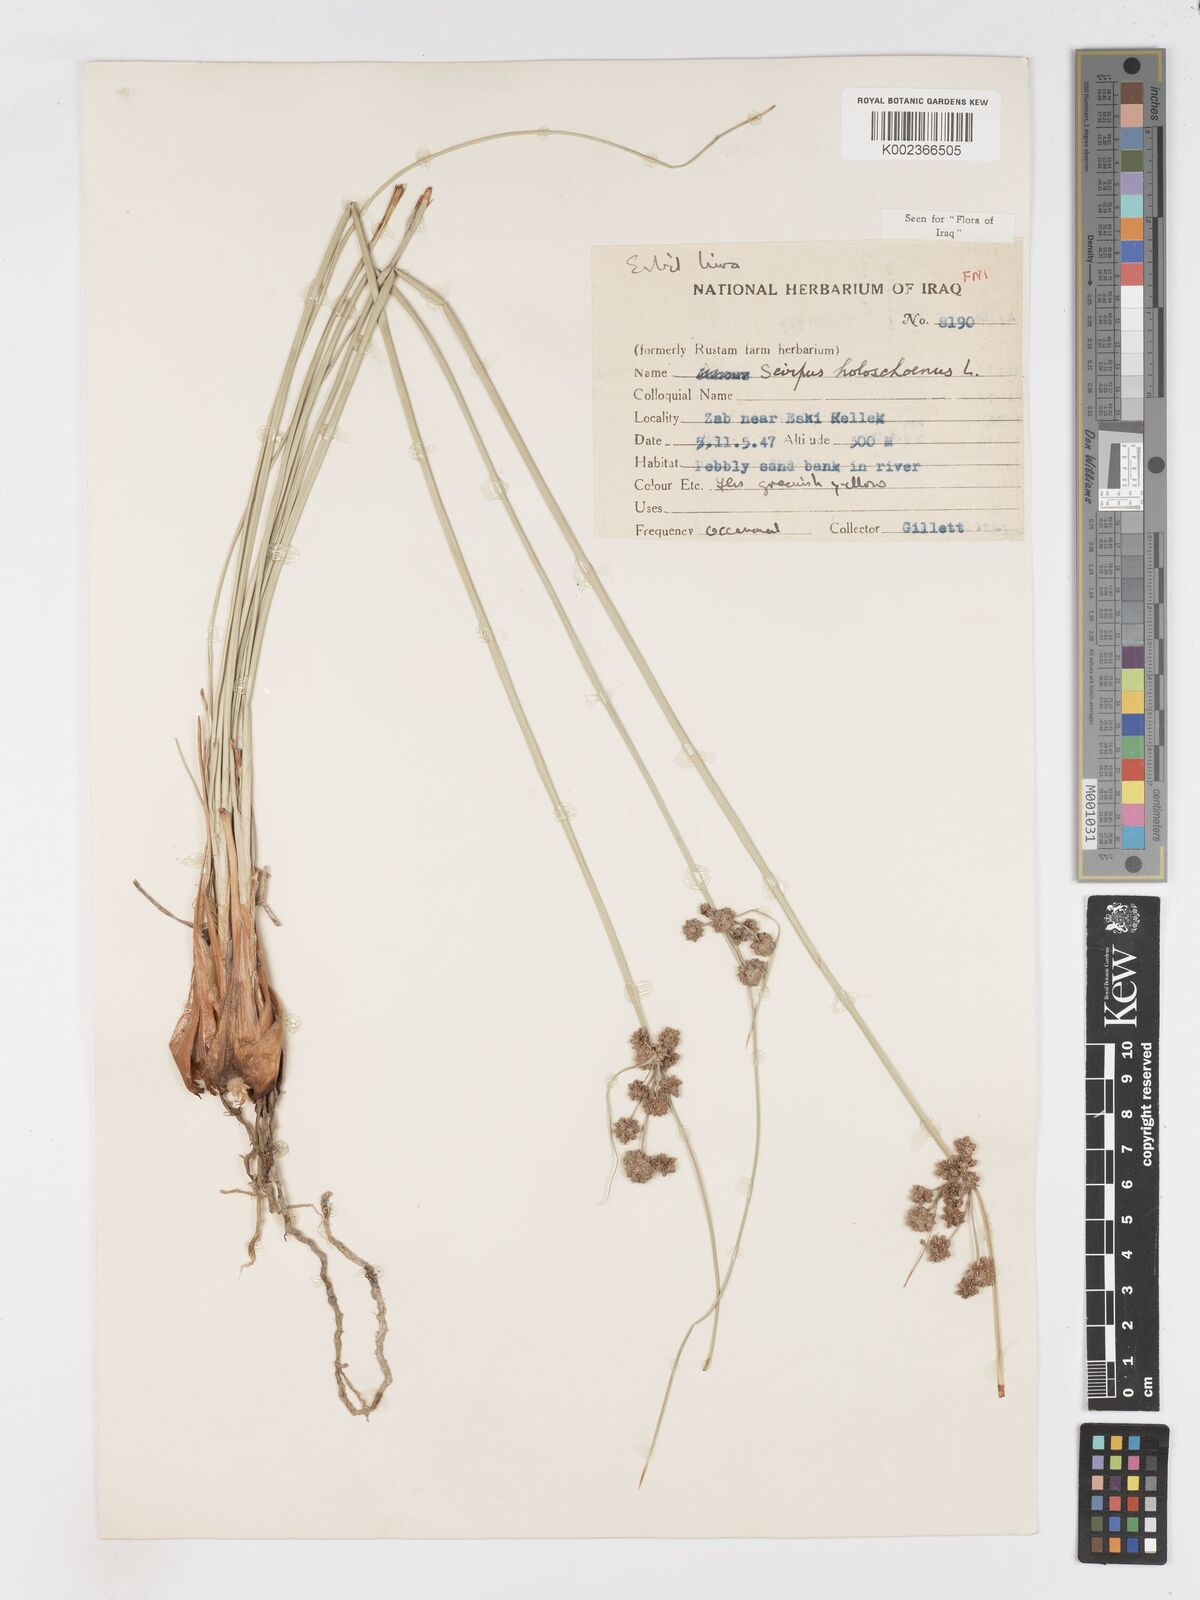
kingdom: Plantae
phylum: Tracheophyta
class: Liliopsida
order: Poales
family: Cyperaceae
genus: Scirpoides
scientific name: Scirpoides holoschoenus
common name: Round-headed club-rush
